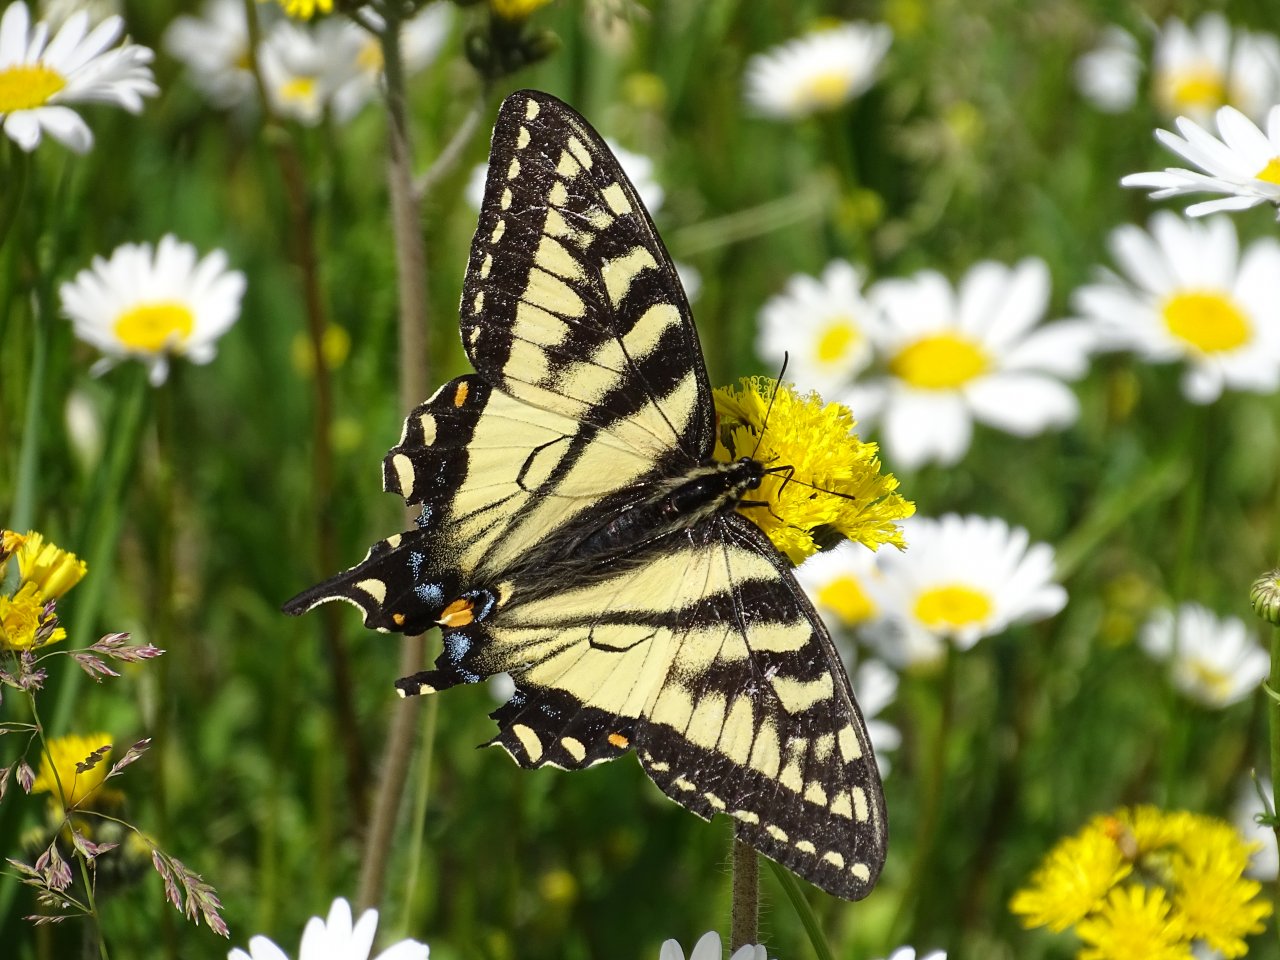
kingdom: Animalia
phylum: Arthropoda
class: Insecta
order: Lepidoptera
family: Papilionidae
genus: Pterourus
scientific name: Pterourus canadensis
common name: Canadian Tiger Swallowtail
